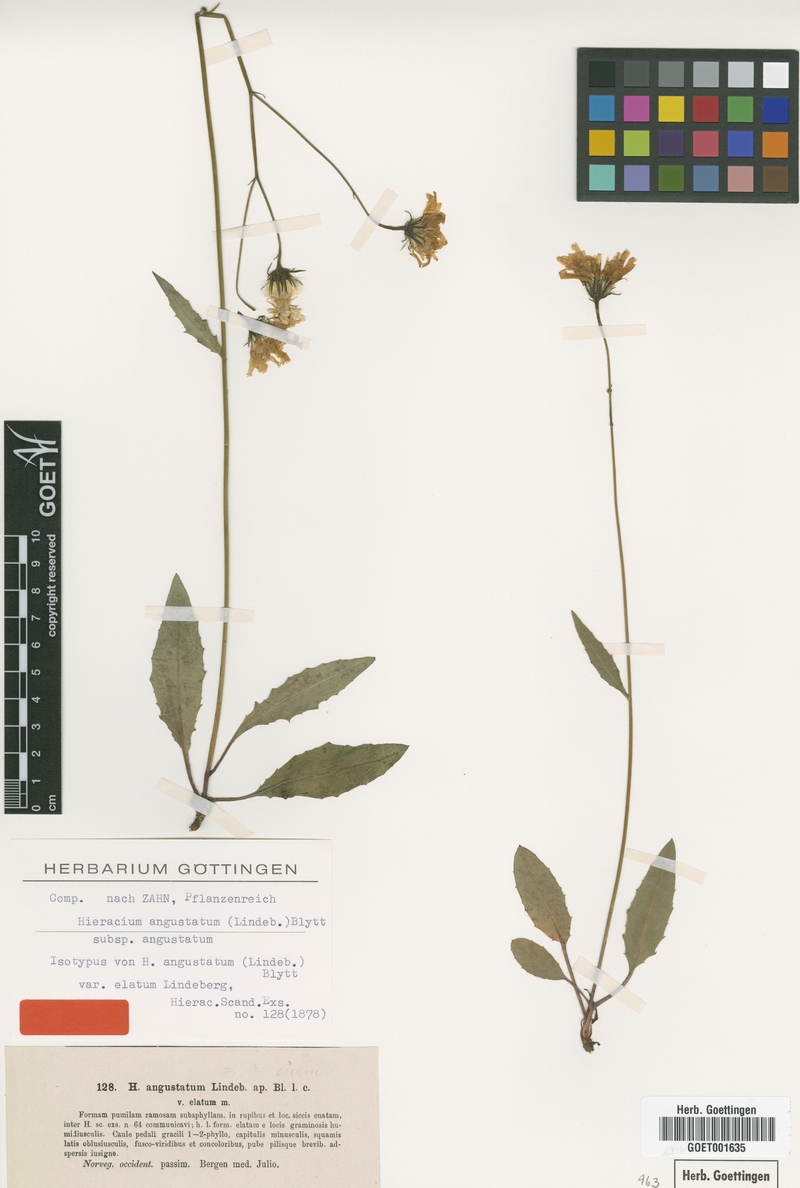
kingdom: Plantae
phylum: Tracheophyta
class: Magnoliopsida
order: Asterales
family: Asteraceae
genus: Hieracium
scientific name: Hieracium angustatum
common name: Lesser-leaved hawkweed
